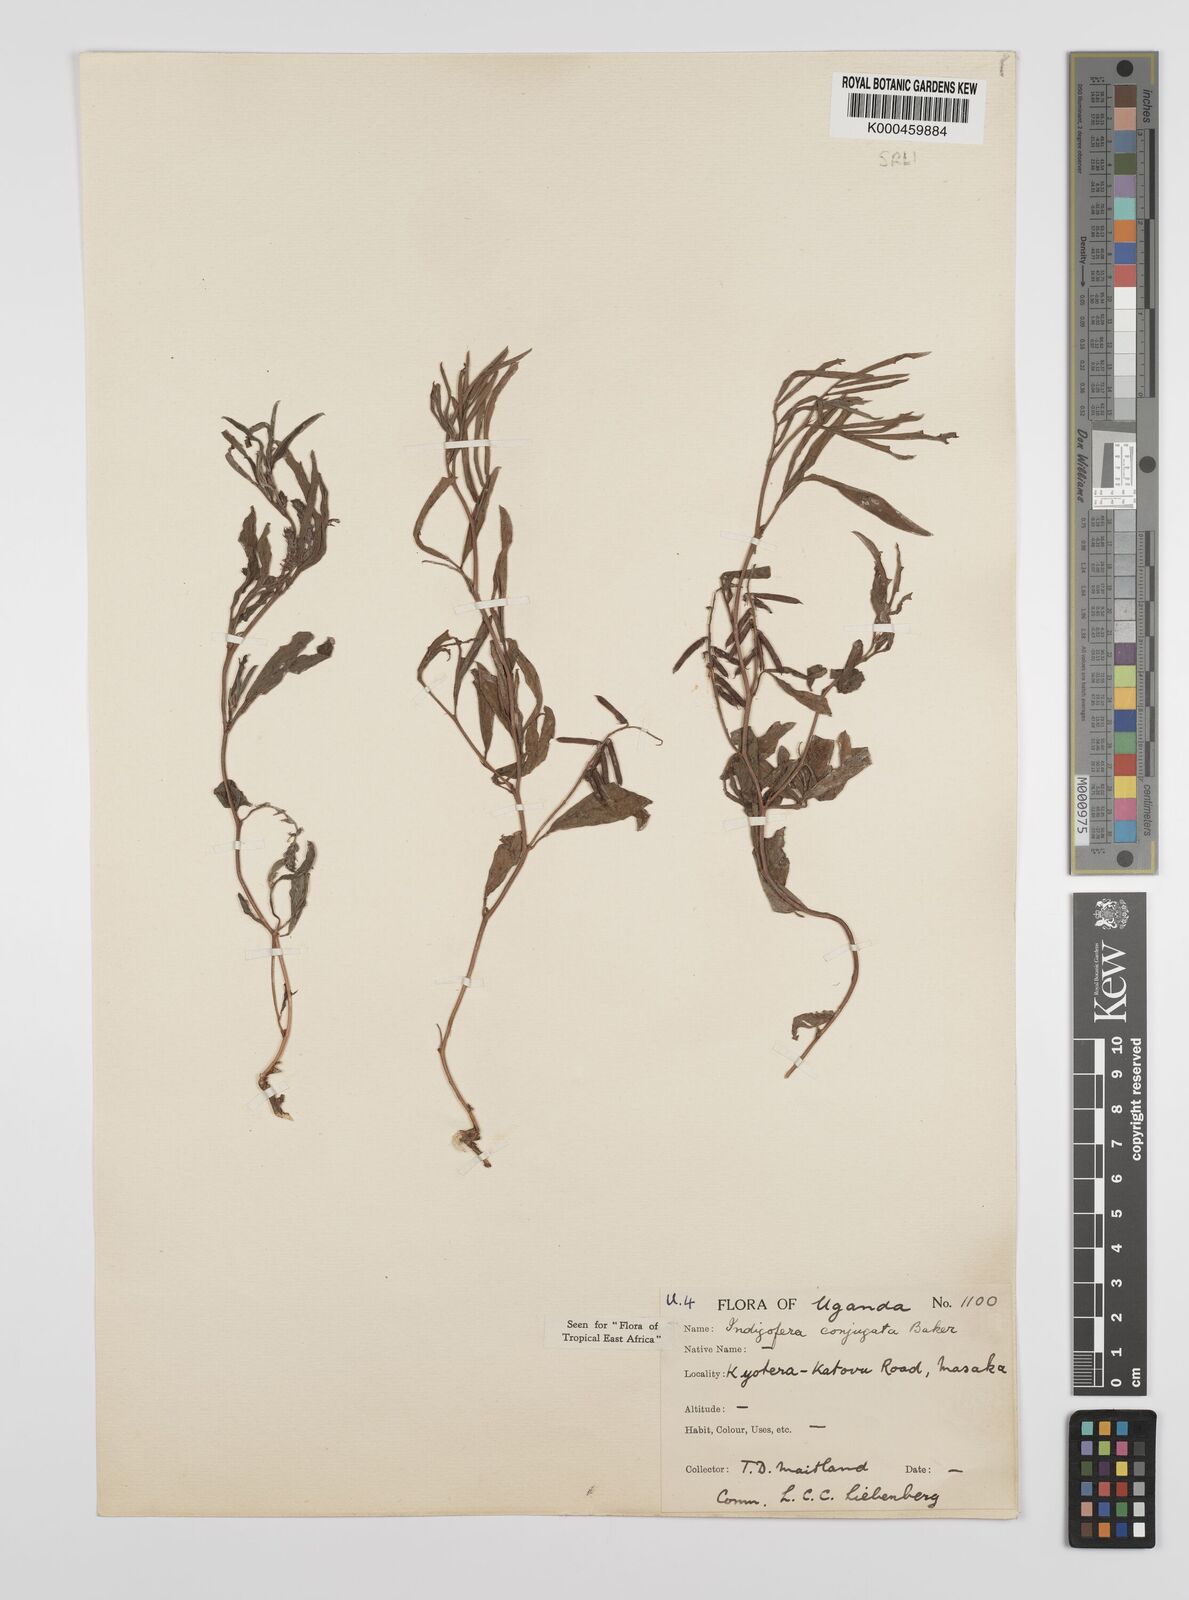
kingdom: Plantae
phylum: Tracheophyta
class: Magnoliopsida
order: Fabales
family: Fabaceae
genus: Indigofera
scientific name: Indigofera conjugata
